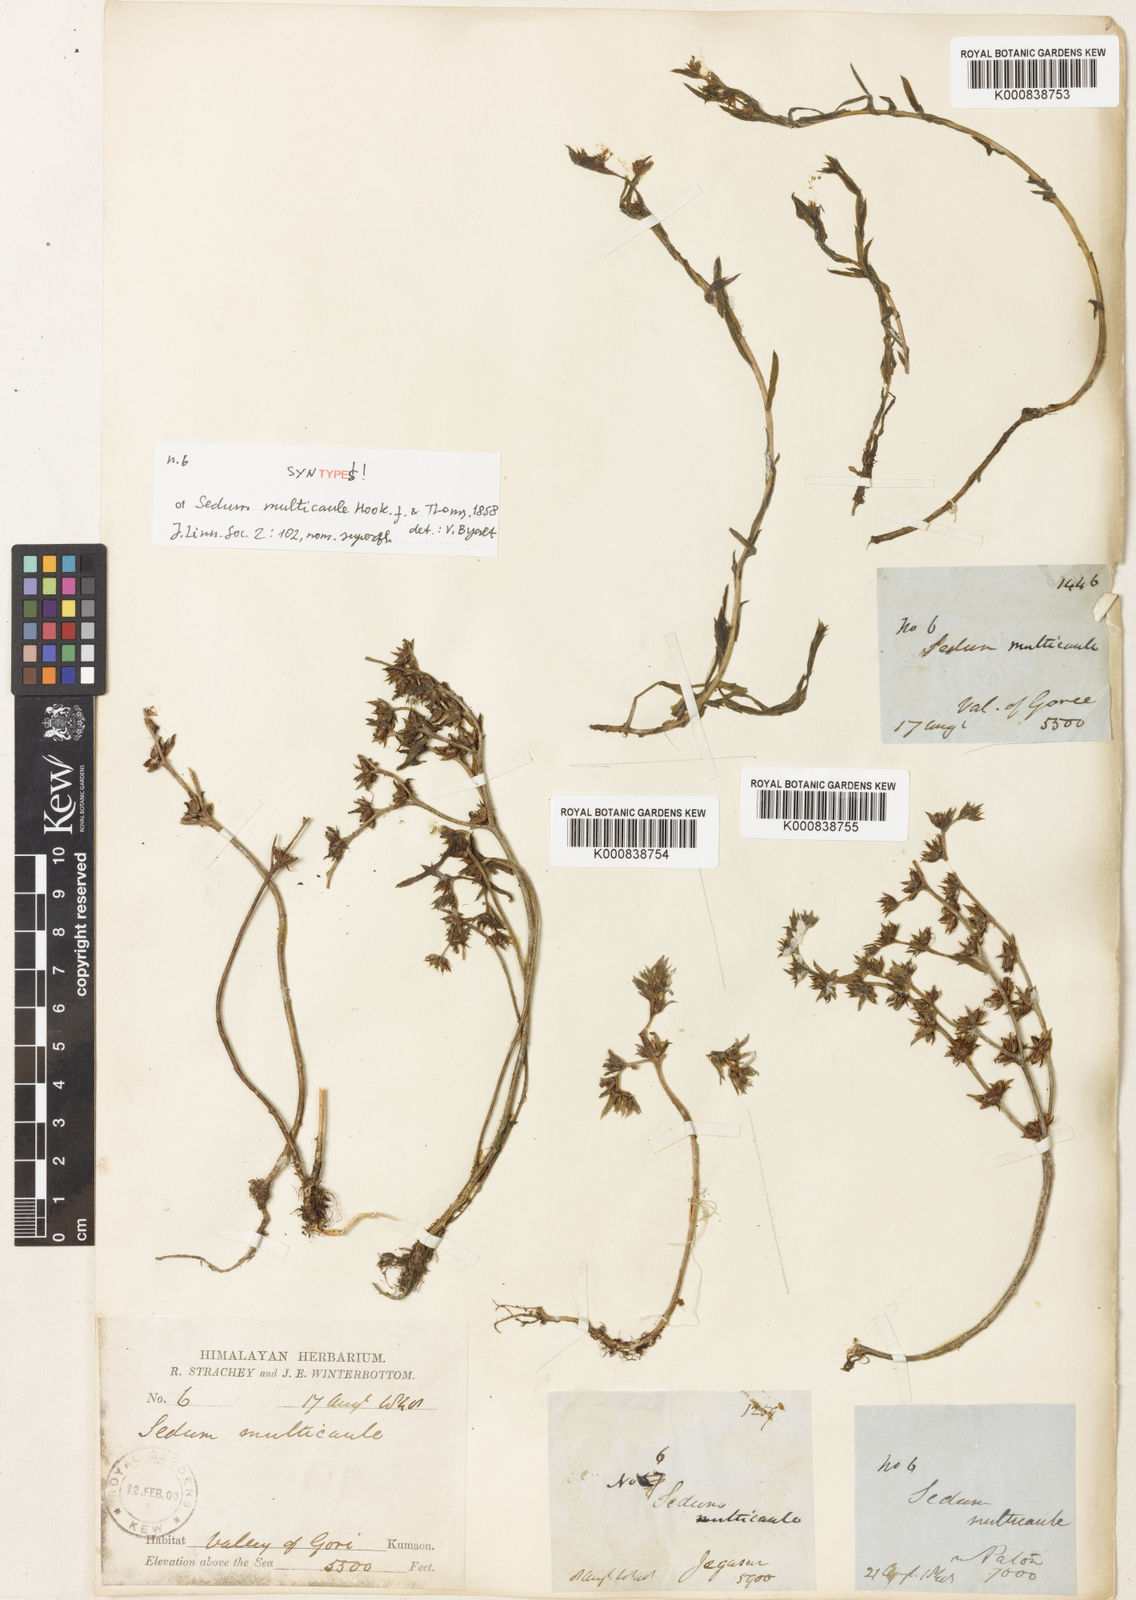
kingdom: Plantae
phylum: Tracheophyta
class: Magnoliopsida
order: Saxifragales
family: Crassulaceae
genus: Sedum
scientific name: Sedum
